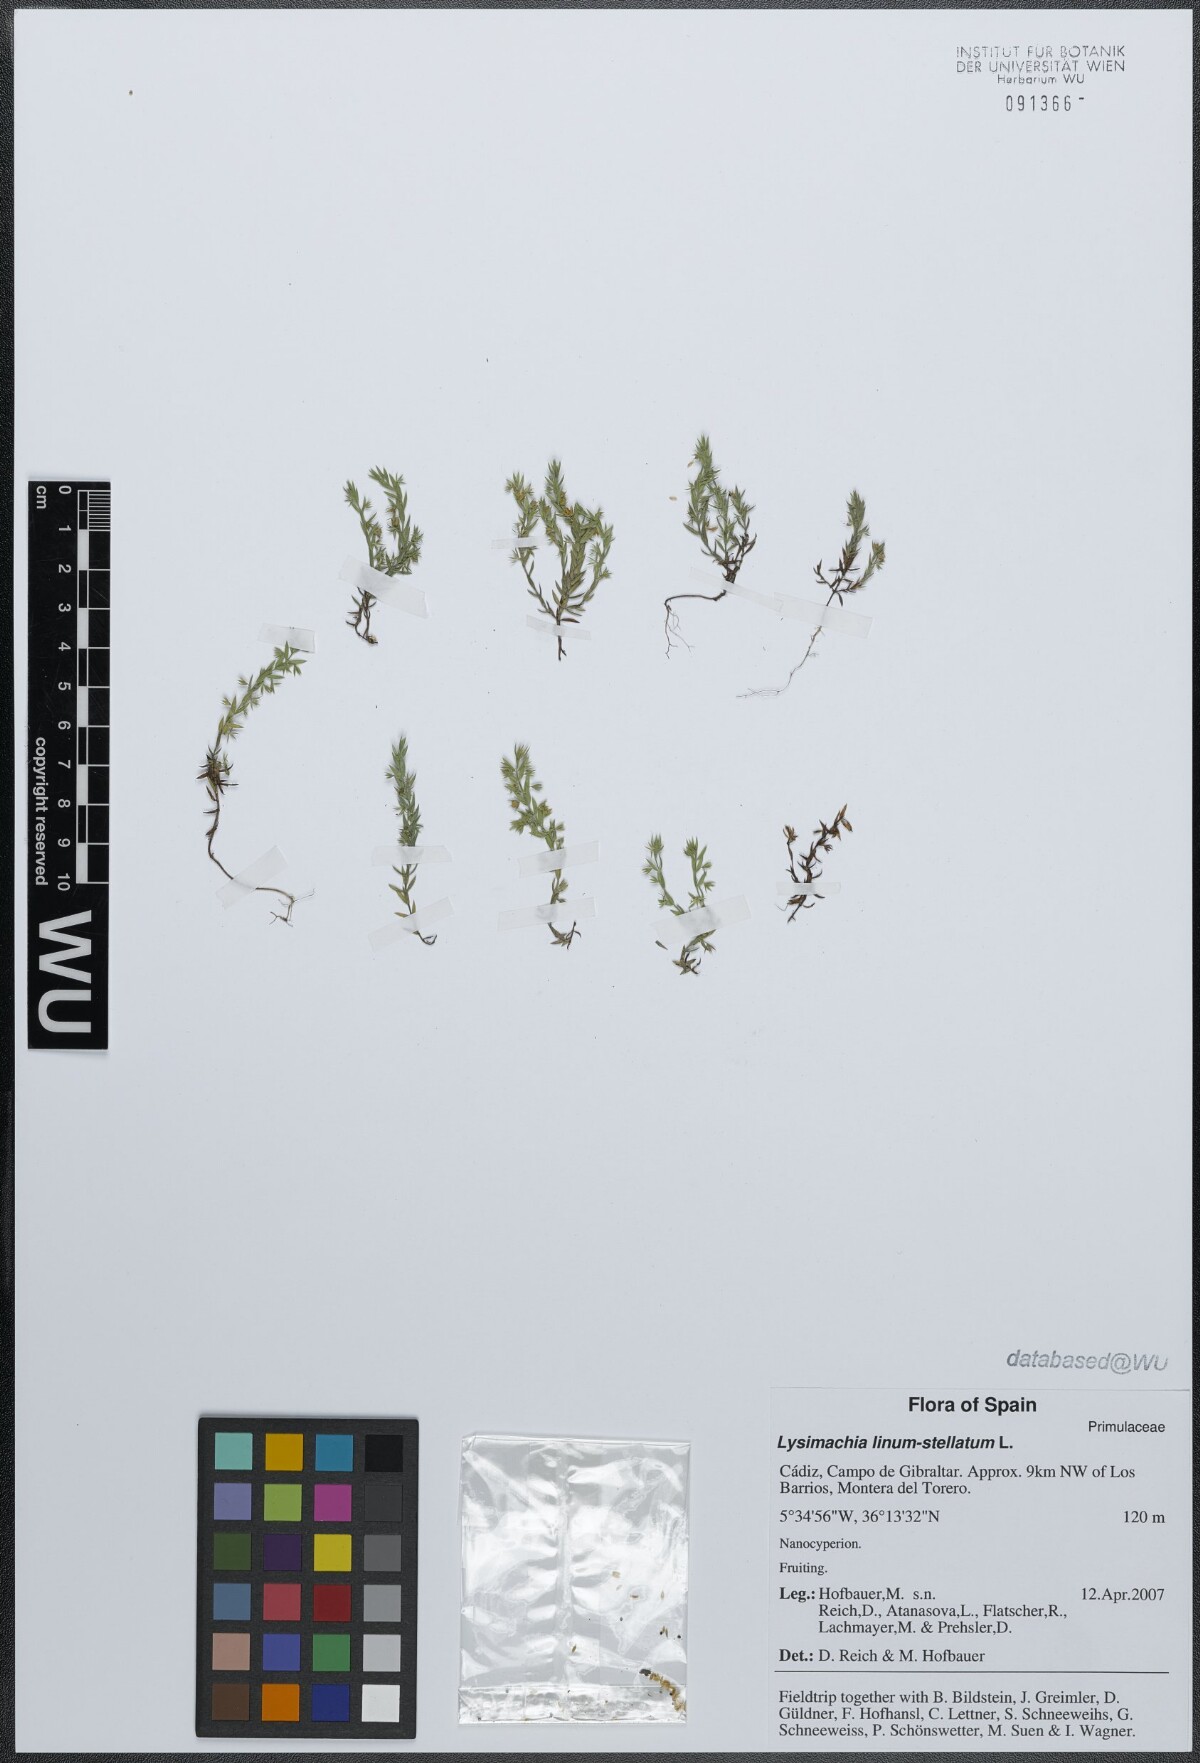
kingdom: Plantae
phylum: Tracheophyta
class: Magnoliopsida
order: Ericales
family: Primulaceae
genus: Lysimachia
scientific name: Lysimachia linum-stellatum
